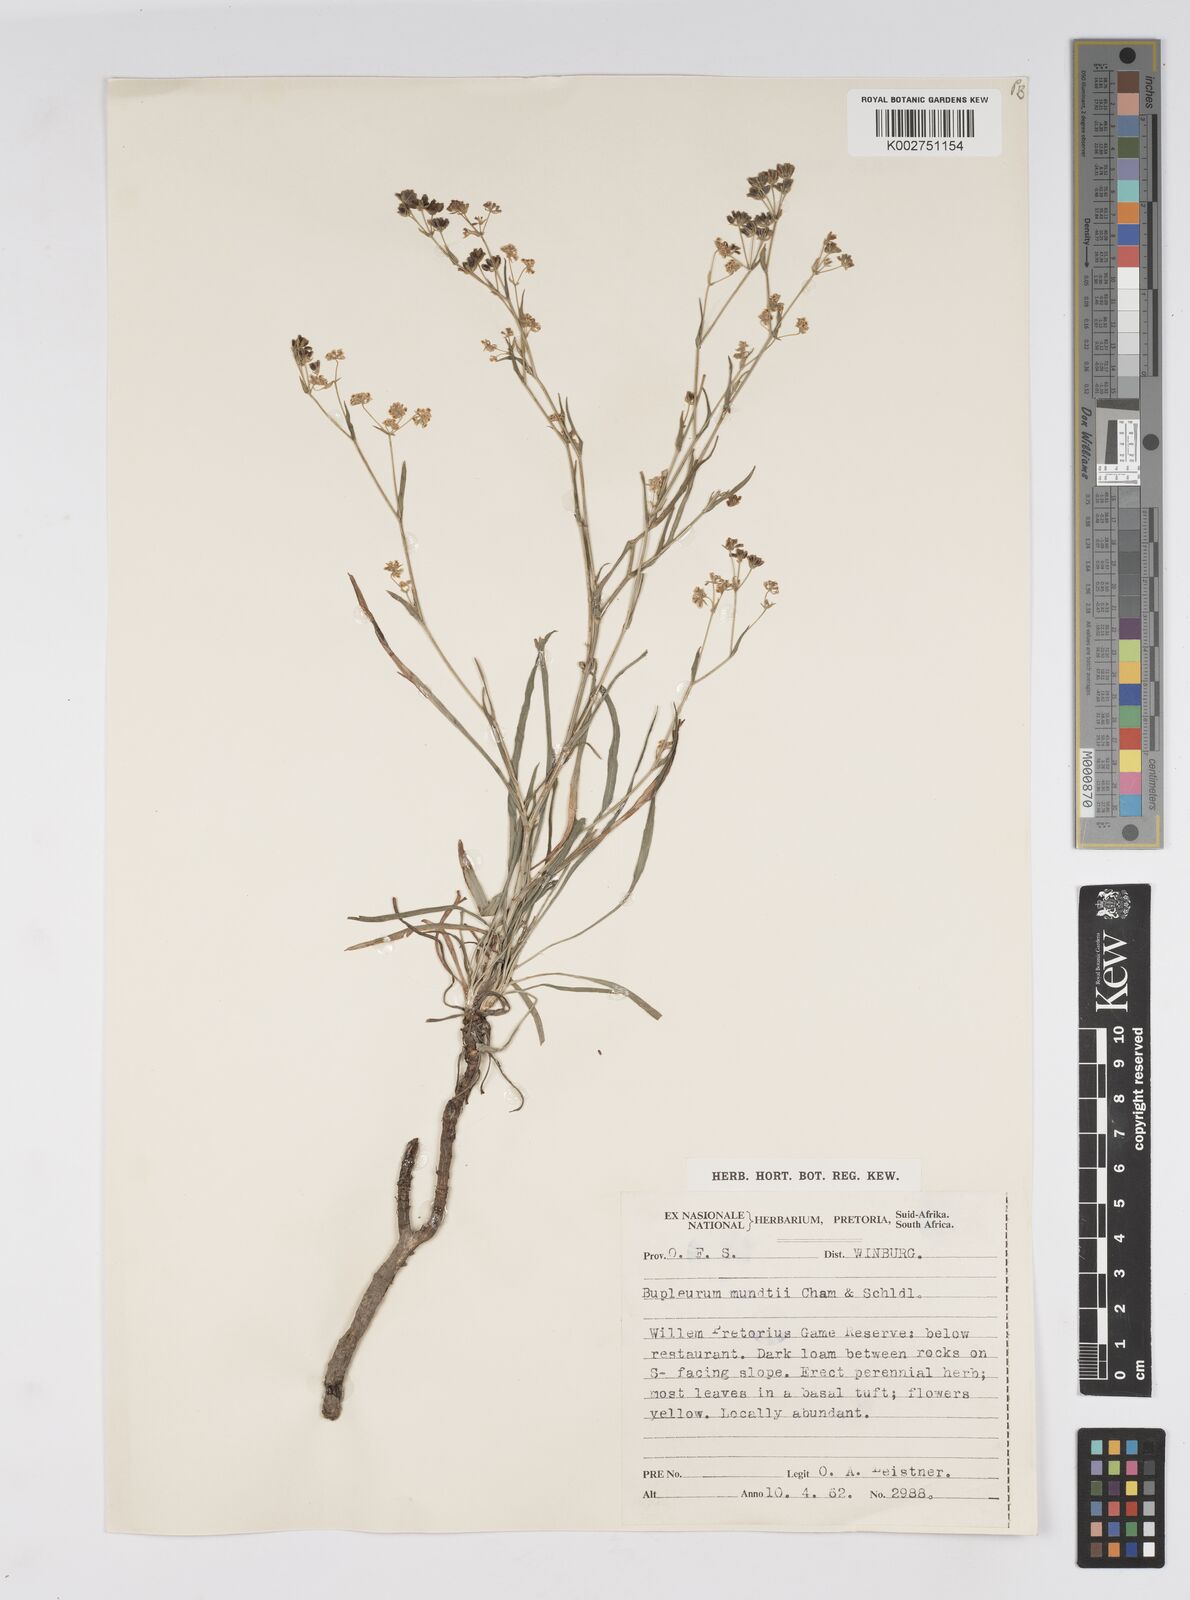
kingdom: Plantae
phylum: Tracheophyta
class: Magnoliopsida
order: Apiales
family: Apiaceae
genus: Bupleurum
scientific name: Bupleurum mundii
